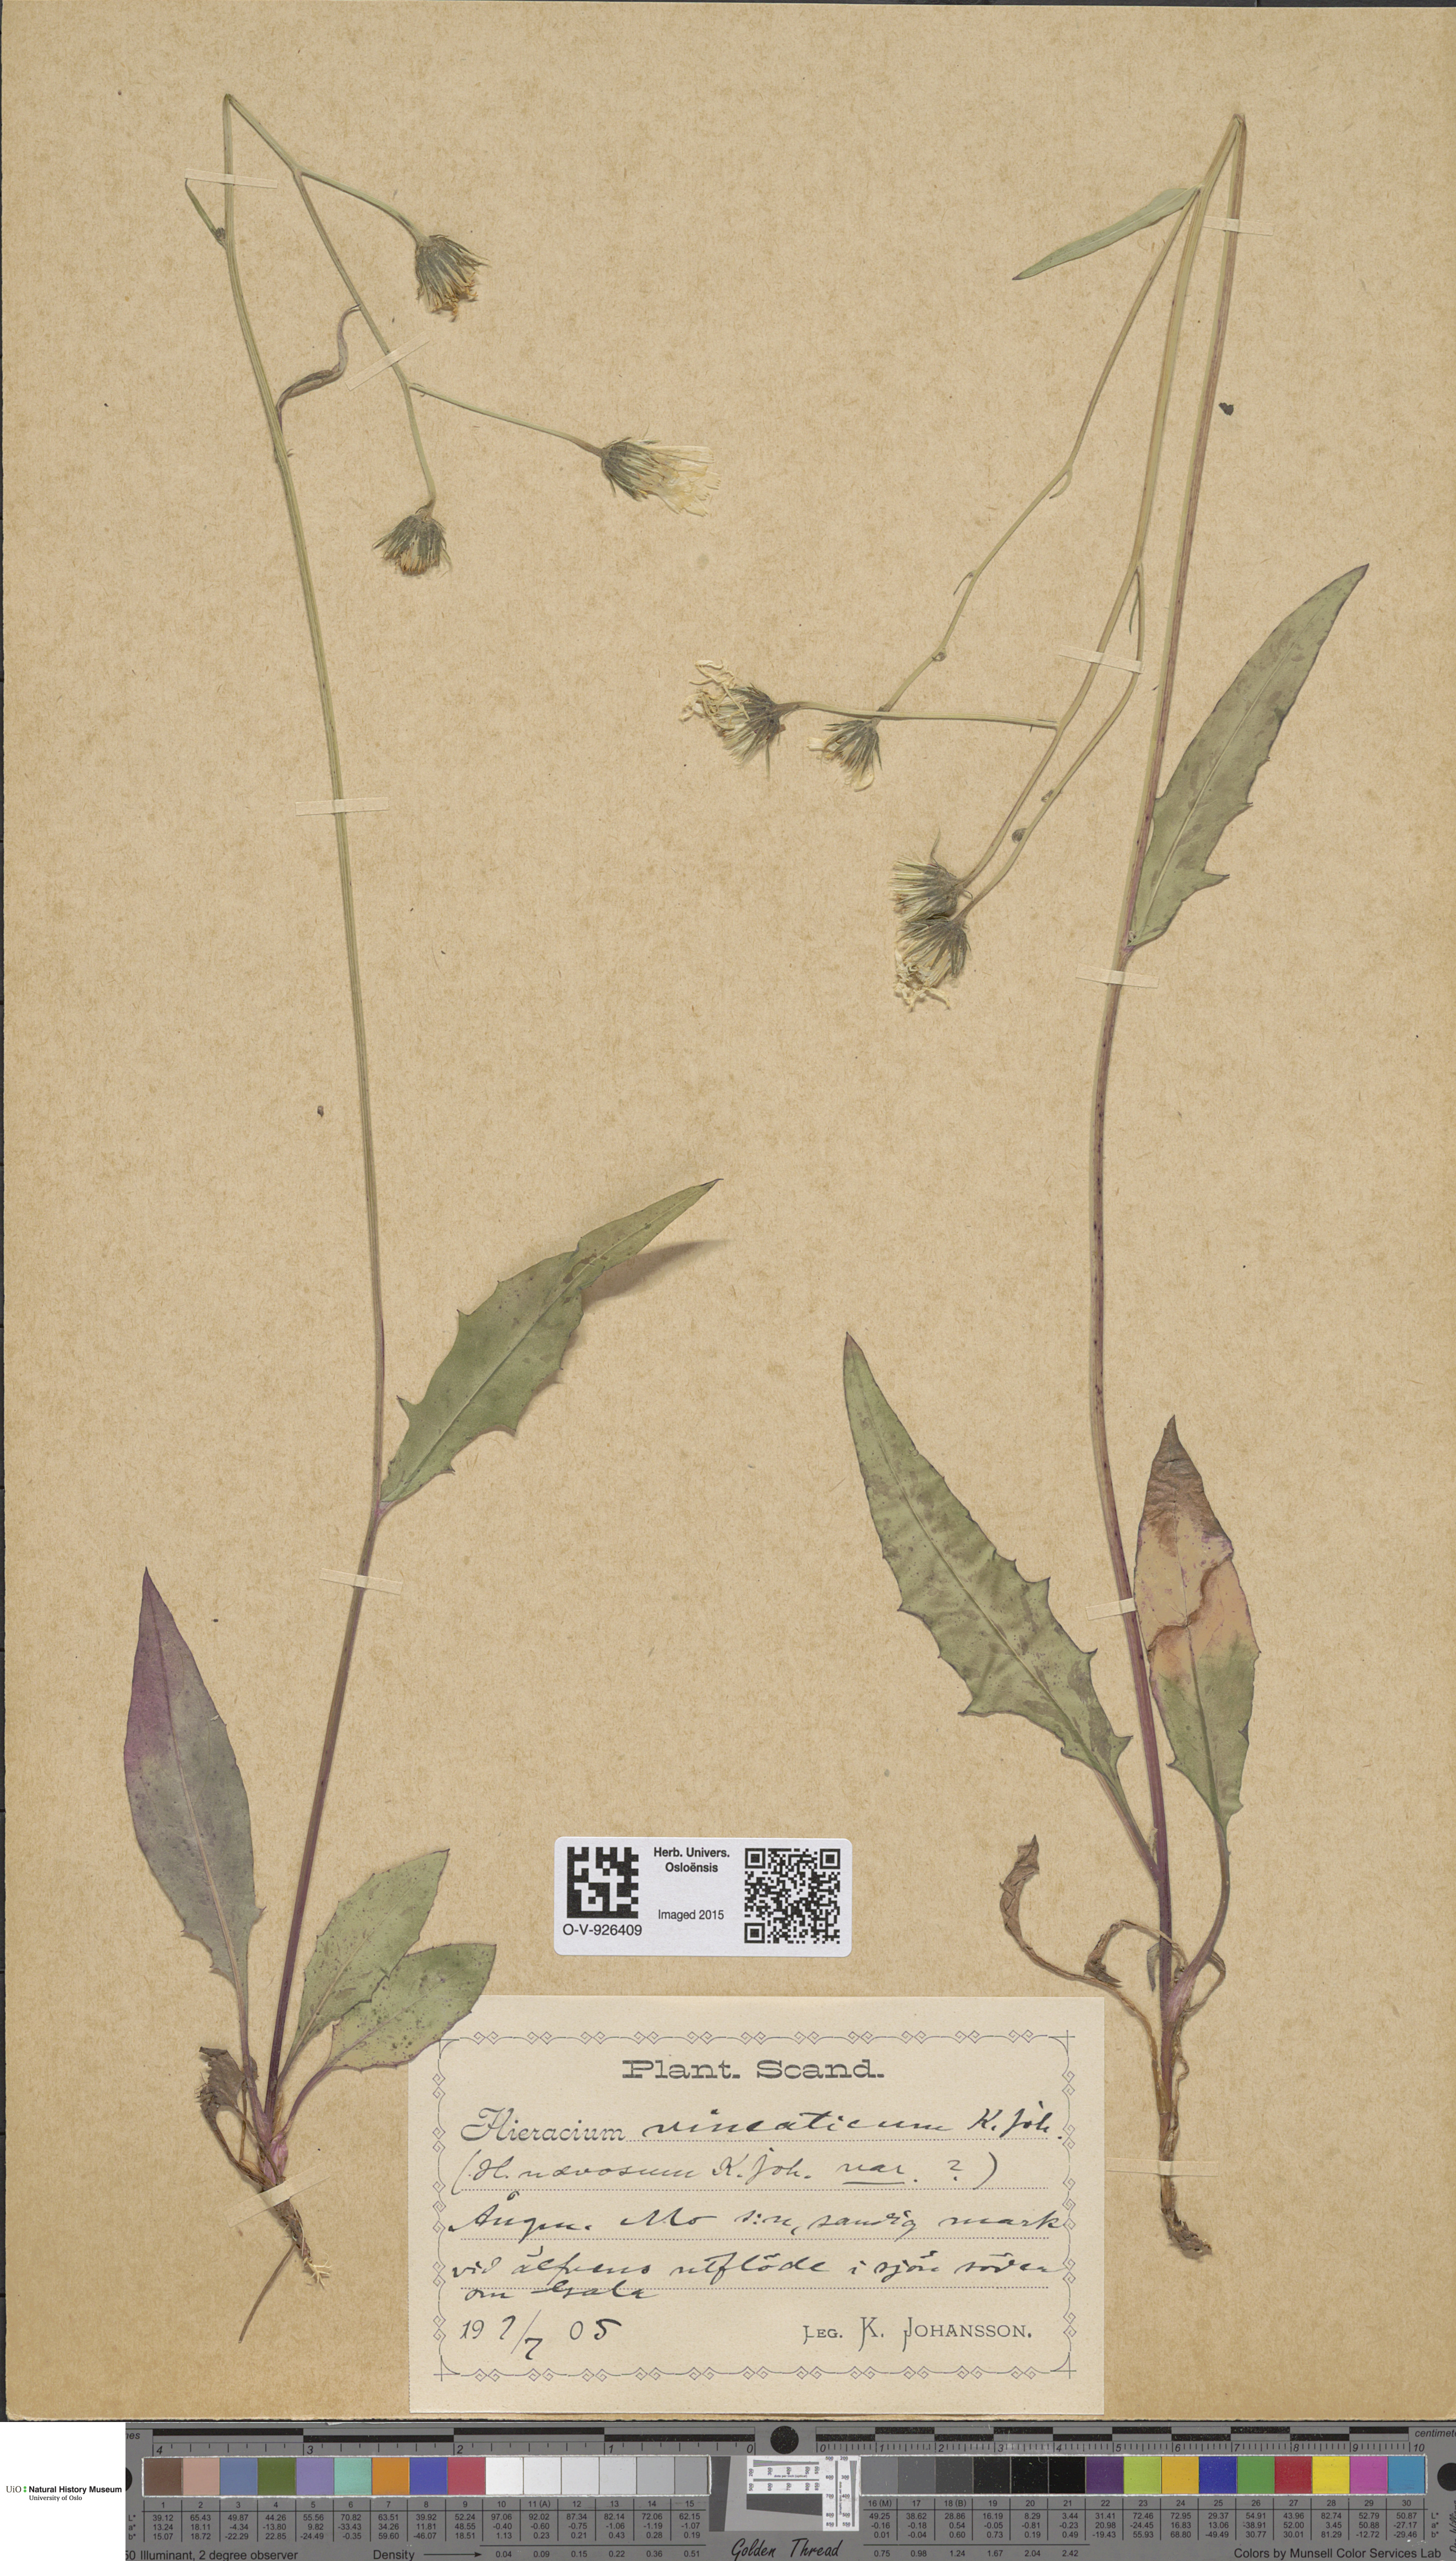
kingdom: Plantae
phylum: Tracheophyta
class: Magnoliopsida
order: Asterales
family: Asteraceae
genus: Hieracium
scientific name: Hieracium
